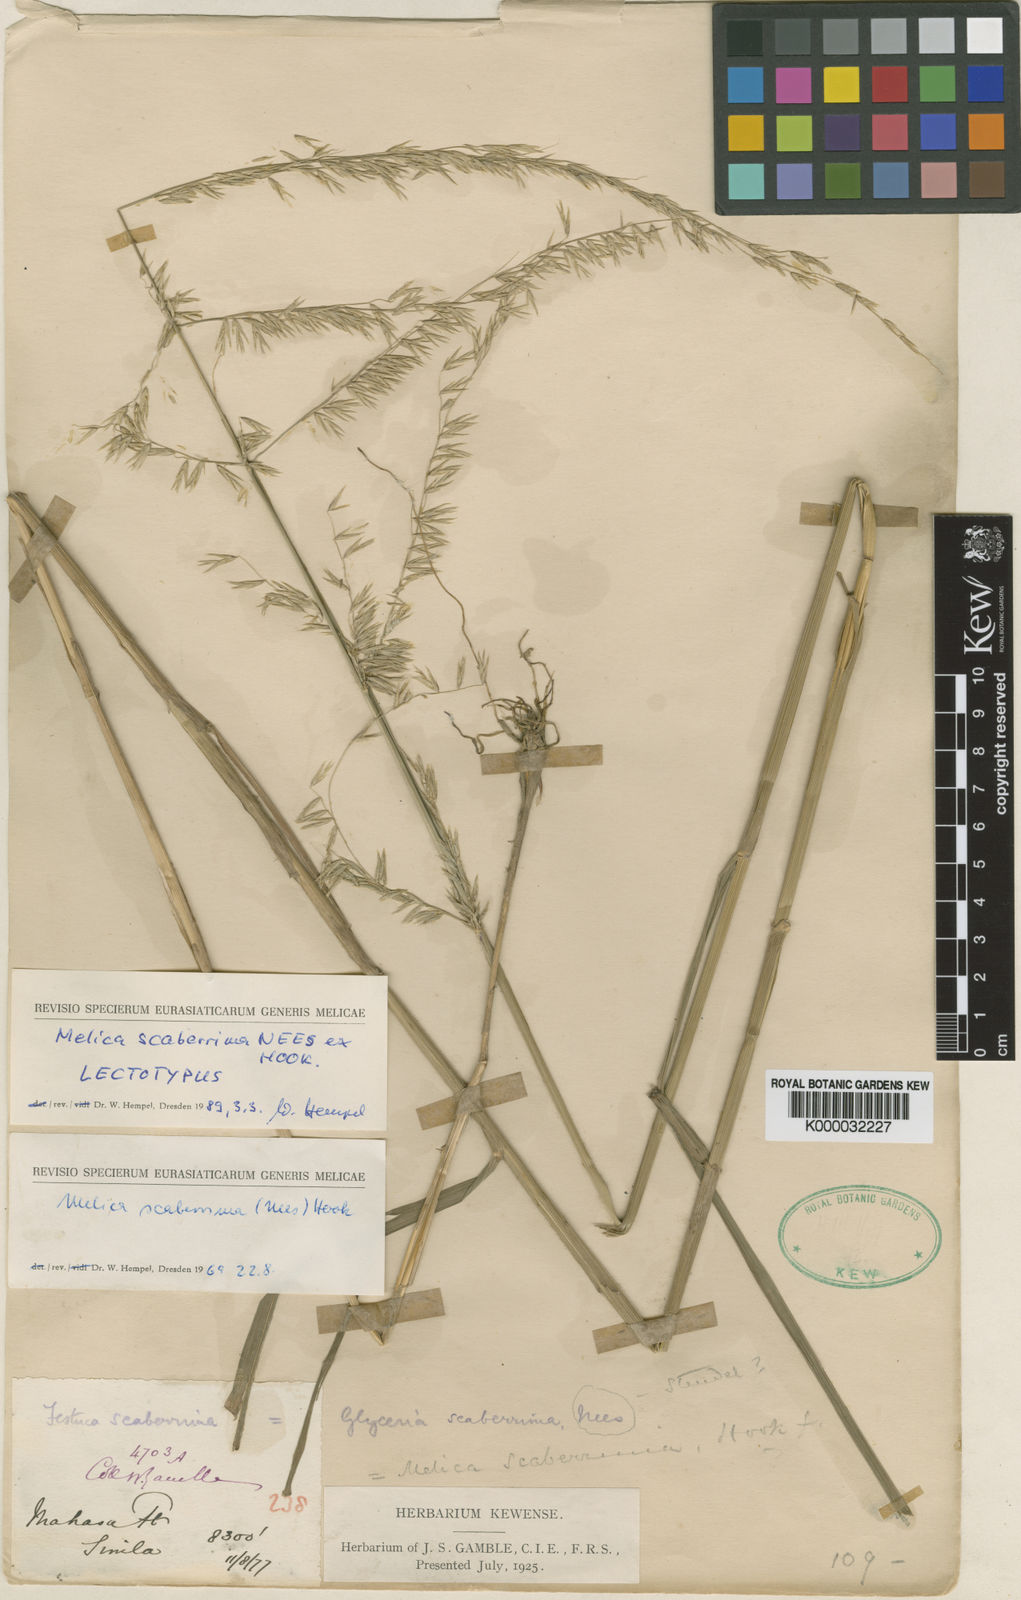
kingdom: Plantae
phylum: Tracheophyta
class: Liliopsida
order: Poales
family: Poaceae
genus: Melica
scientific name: Melica scaberrima
